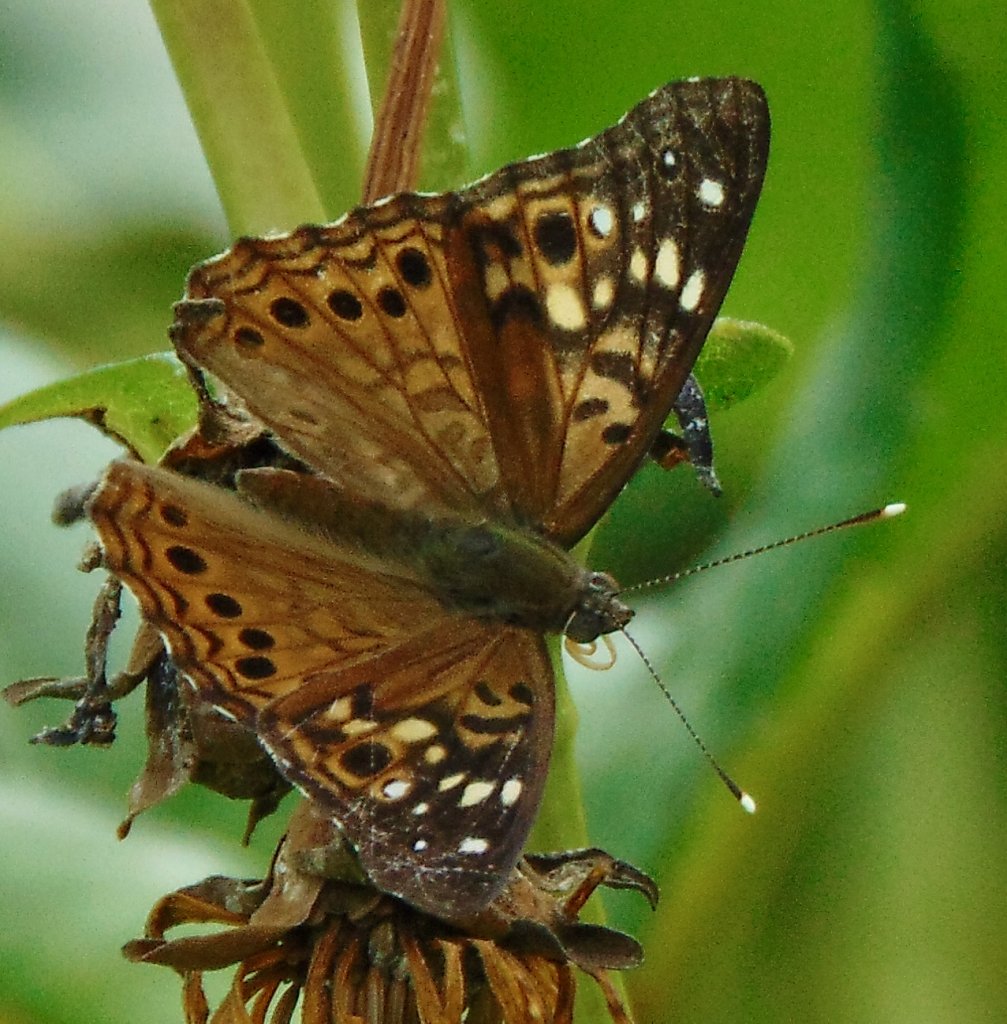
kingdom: Animalia
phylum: Arthropoda
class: Insecta
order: Lepidoptera
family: Nymphalidae
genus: Asterocampa
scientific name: Asterocampa celtis
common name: Hackberry Emperor
